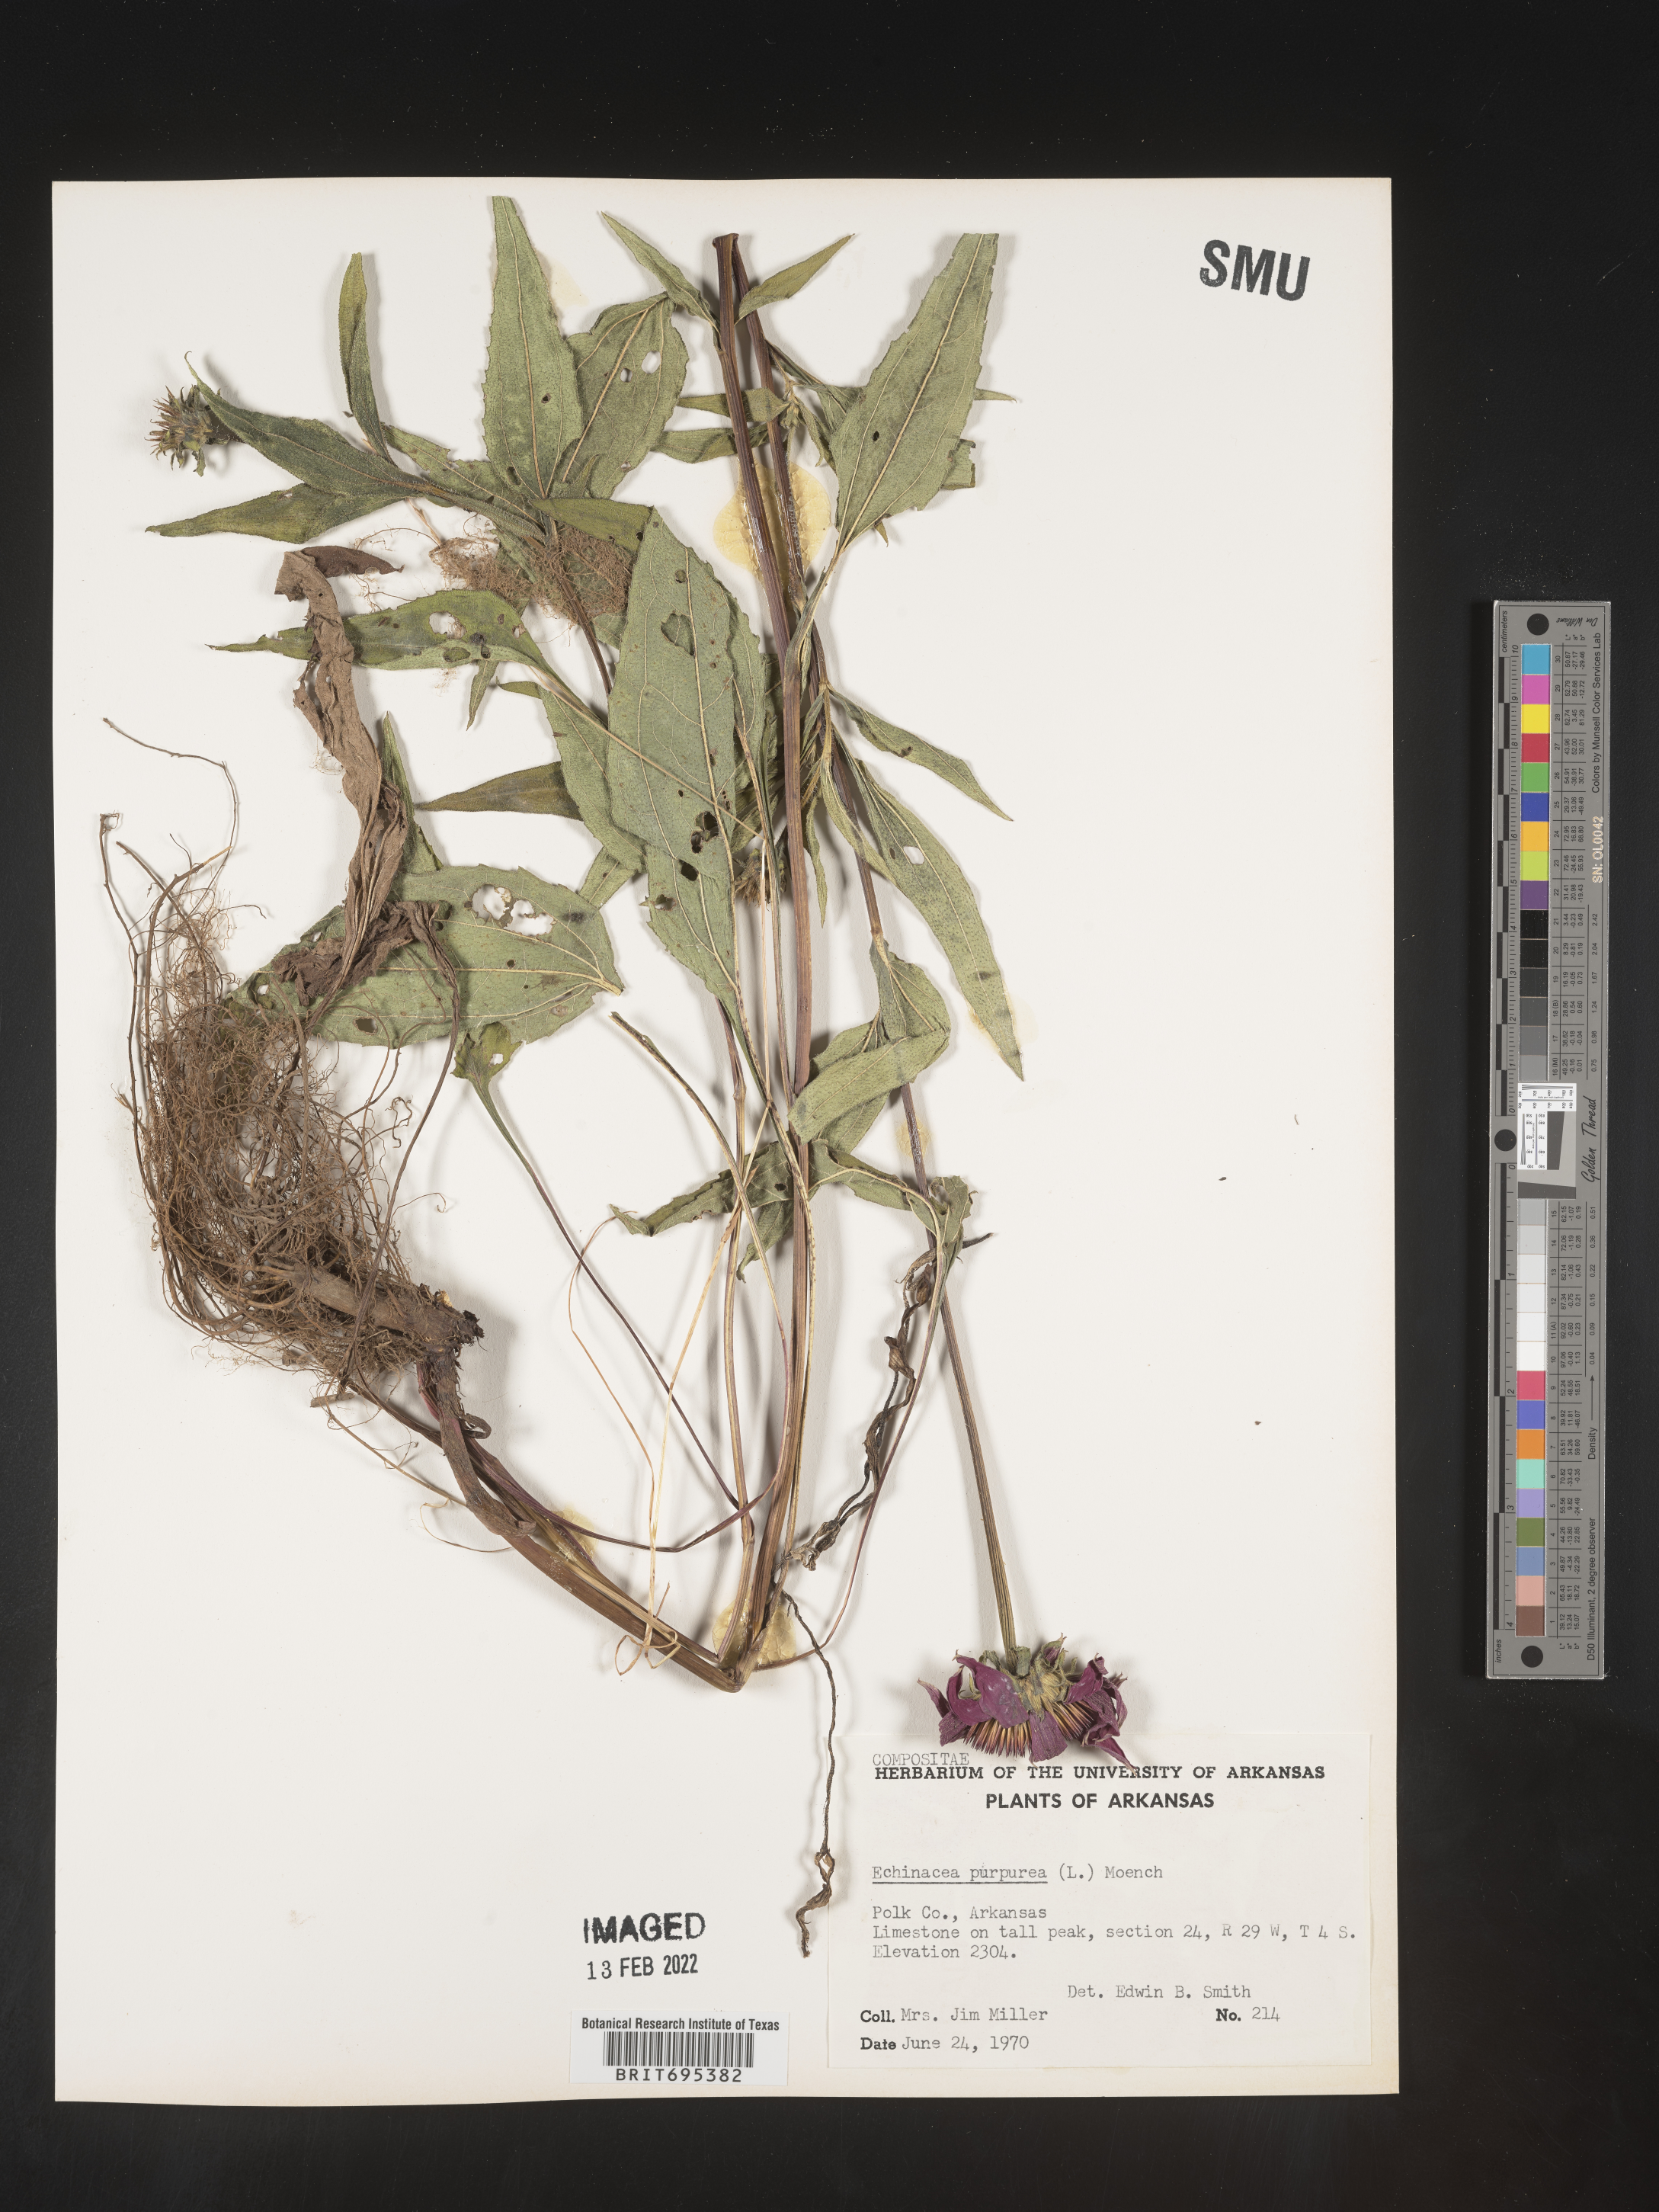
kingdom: Plantae
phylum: Tracheophyta
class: Magnoliopsida
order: Asterales
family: Asteraceae
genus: Echinacea
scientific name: Echinacea purpurea
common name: Broad-leaved purple coneflower
